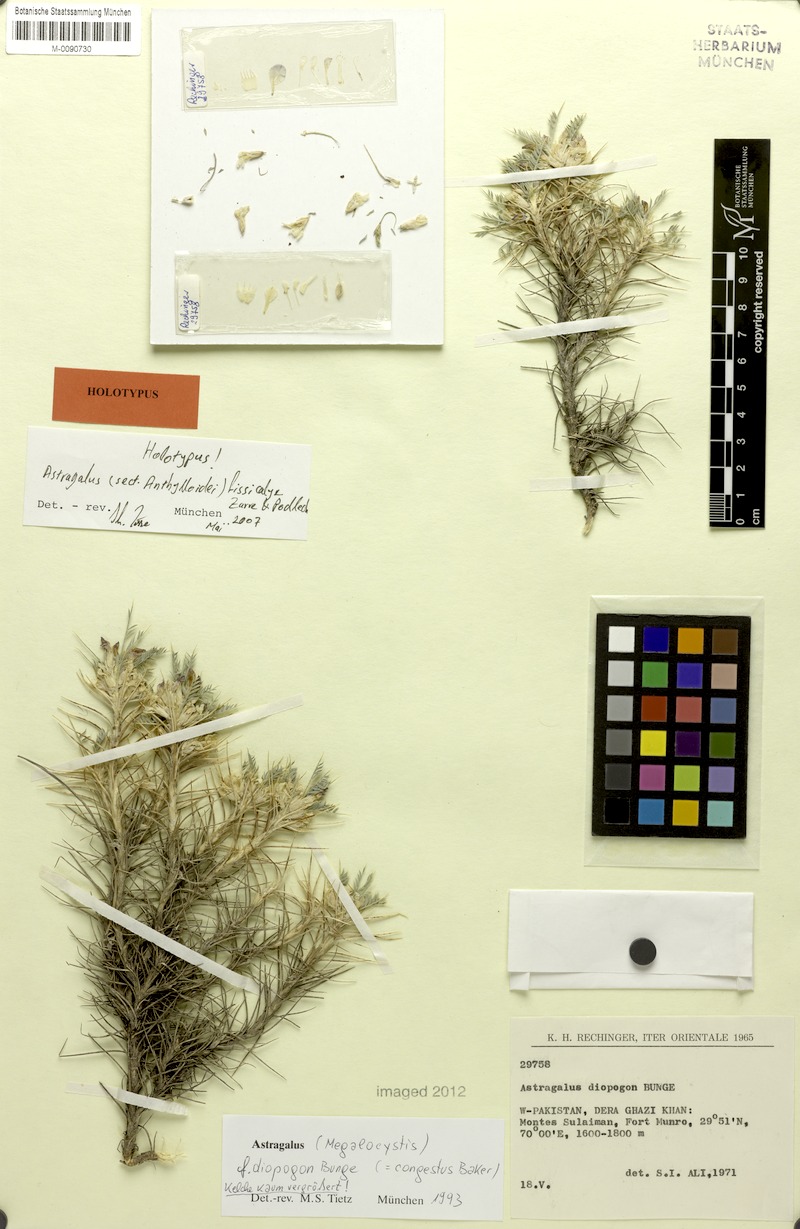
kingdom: Plantae
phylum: Tracheophyta
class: Magnoliopsida
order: Fabales
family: Fabaceae
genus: Astragalus
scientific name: Astragalus fissicalyx
